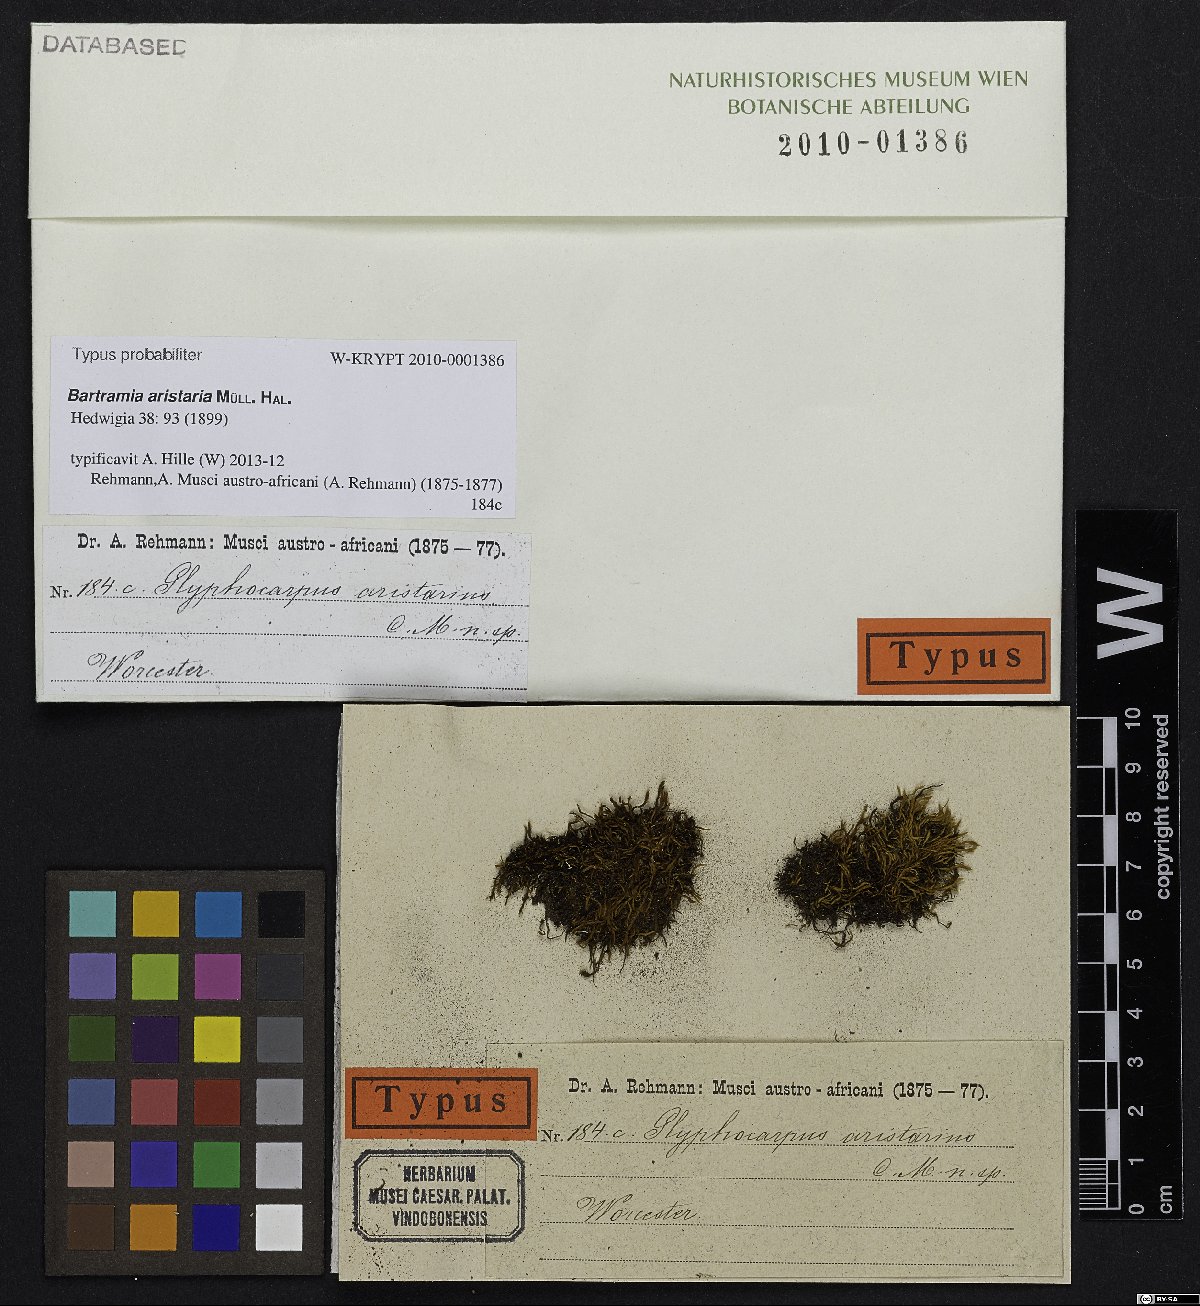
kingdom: Plantae
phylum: Bryophyta
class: Bryopsida
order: Bartramiales
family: Bartramiaceae
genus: Bartramia
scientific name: Bartramia aristaria
